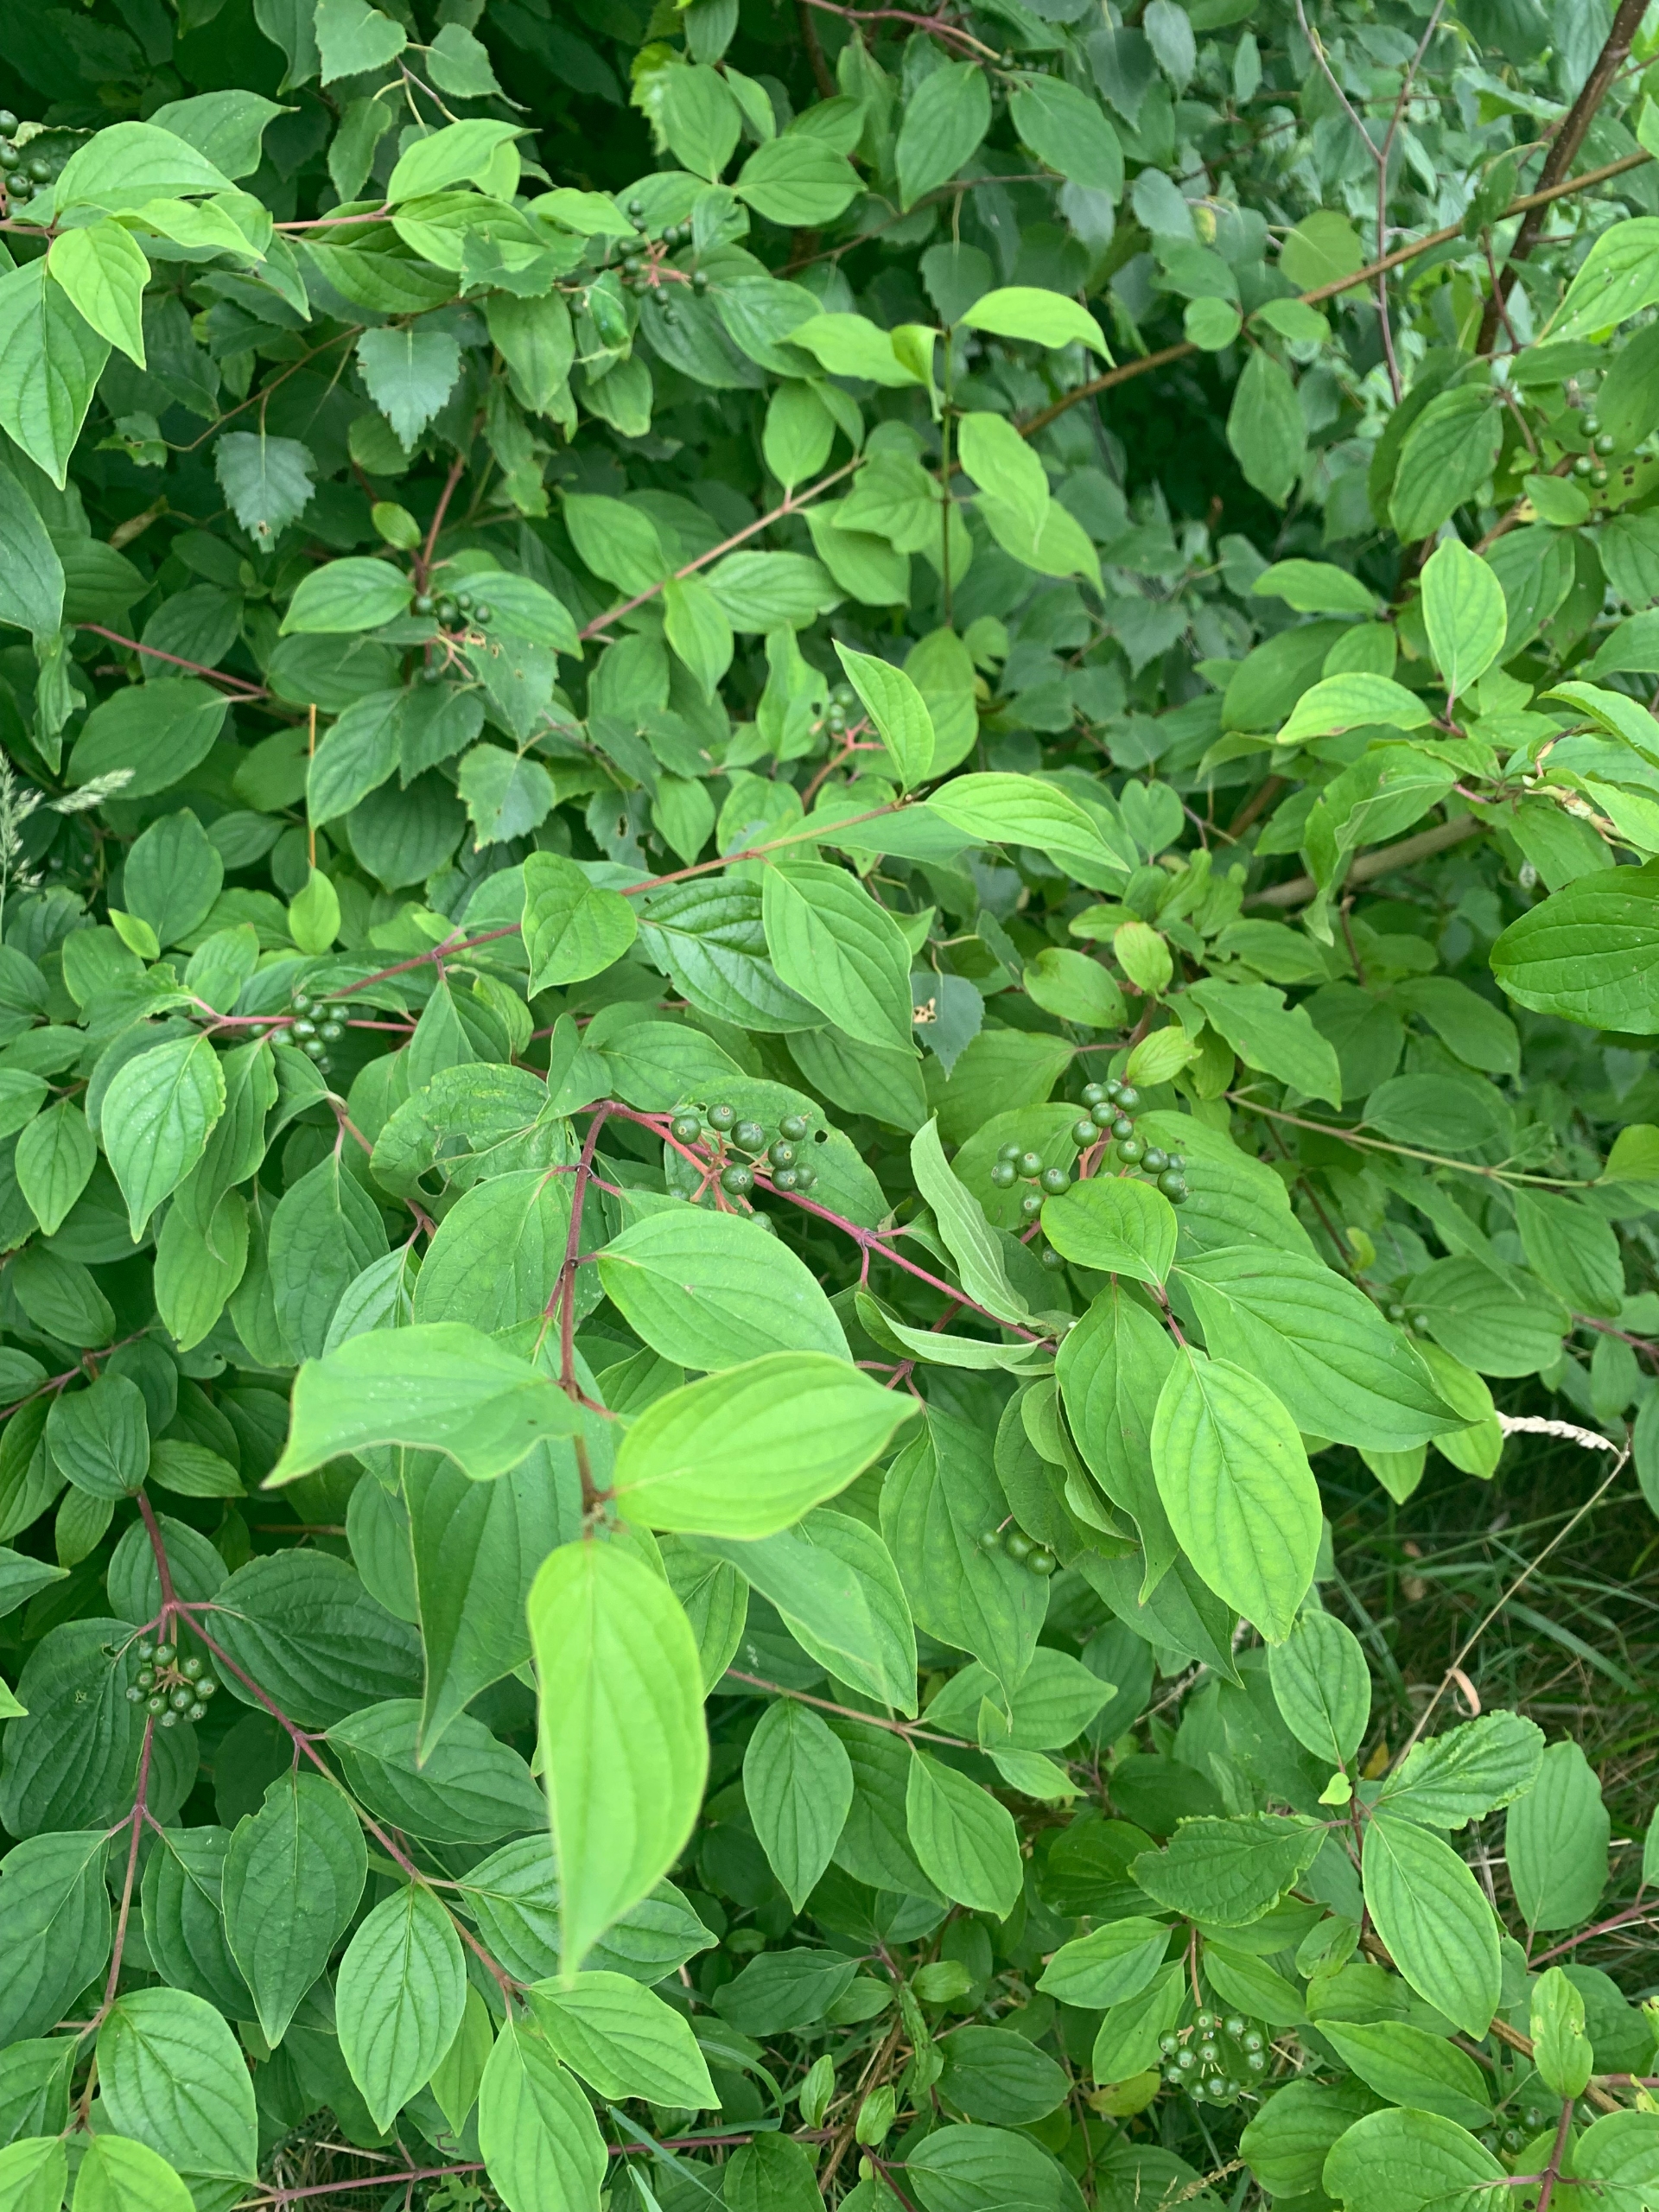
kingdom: Plantae
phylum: Tracheophyta
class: Magnoliopsida
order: Cornales
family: Cornaceae
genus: Cornus
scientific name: Cornus sanguinea
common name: Rød kornel
